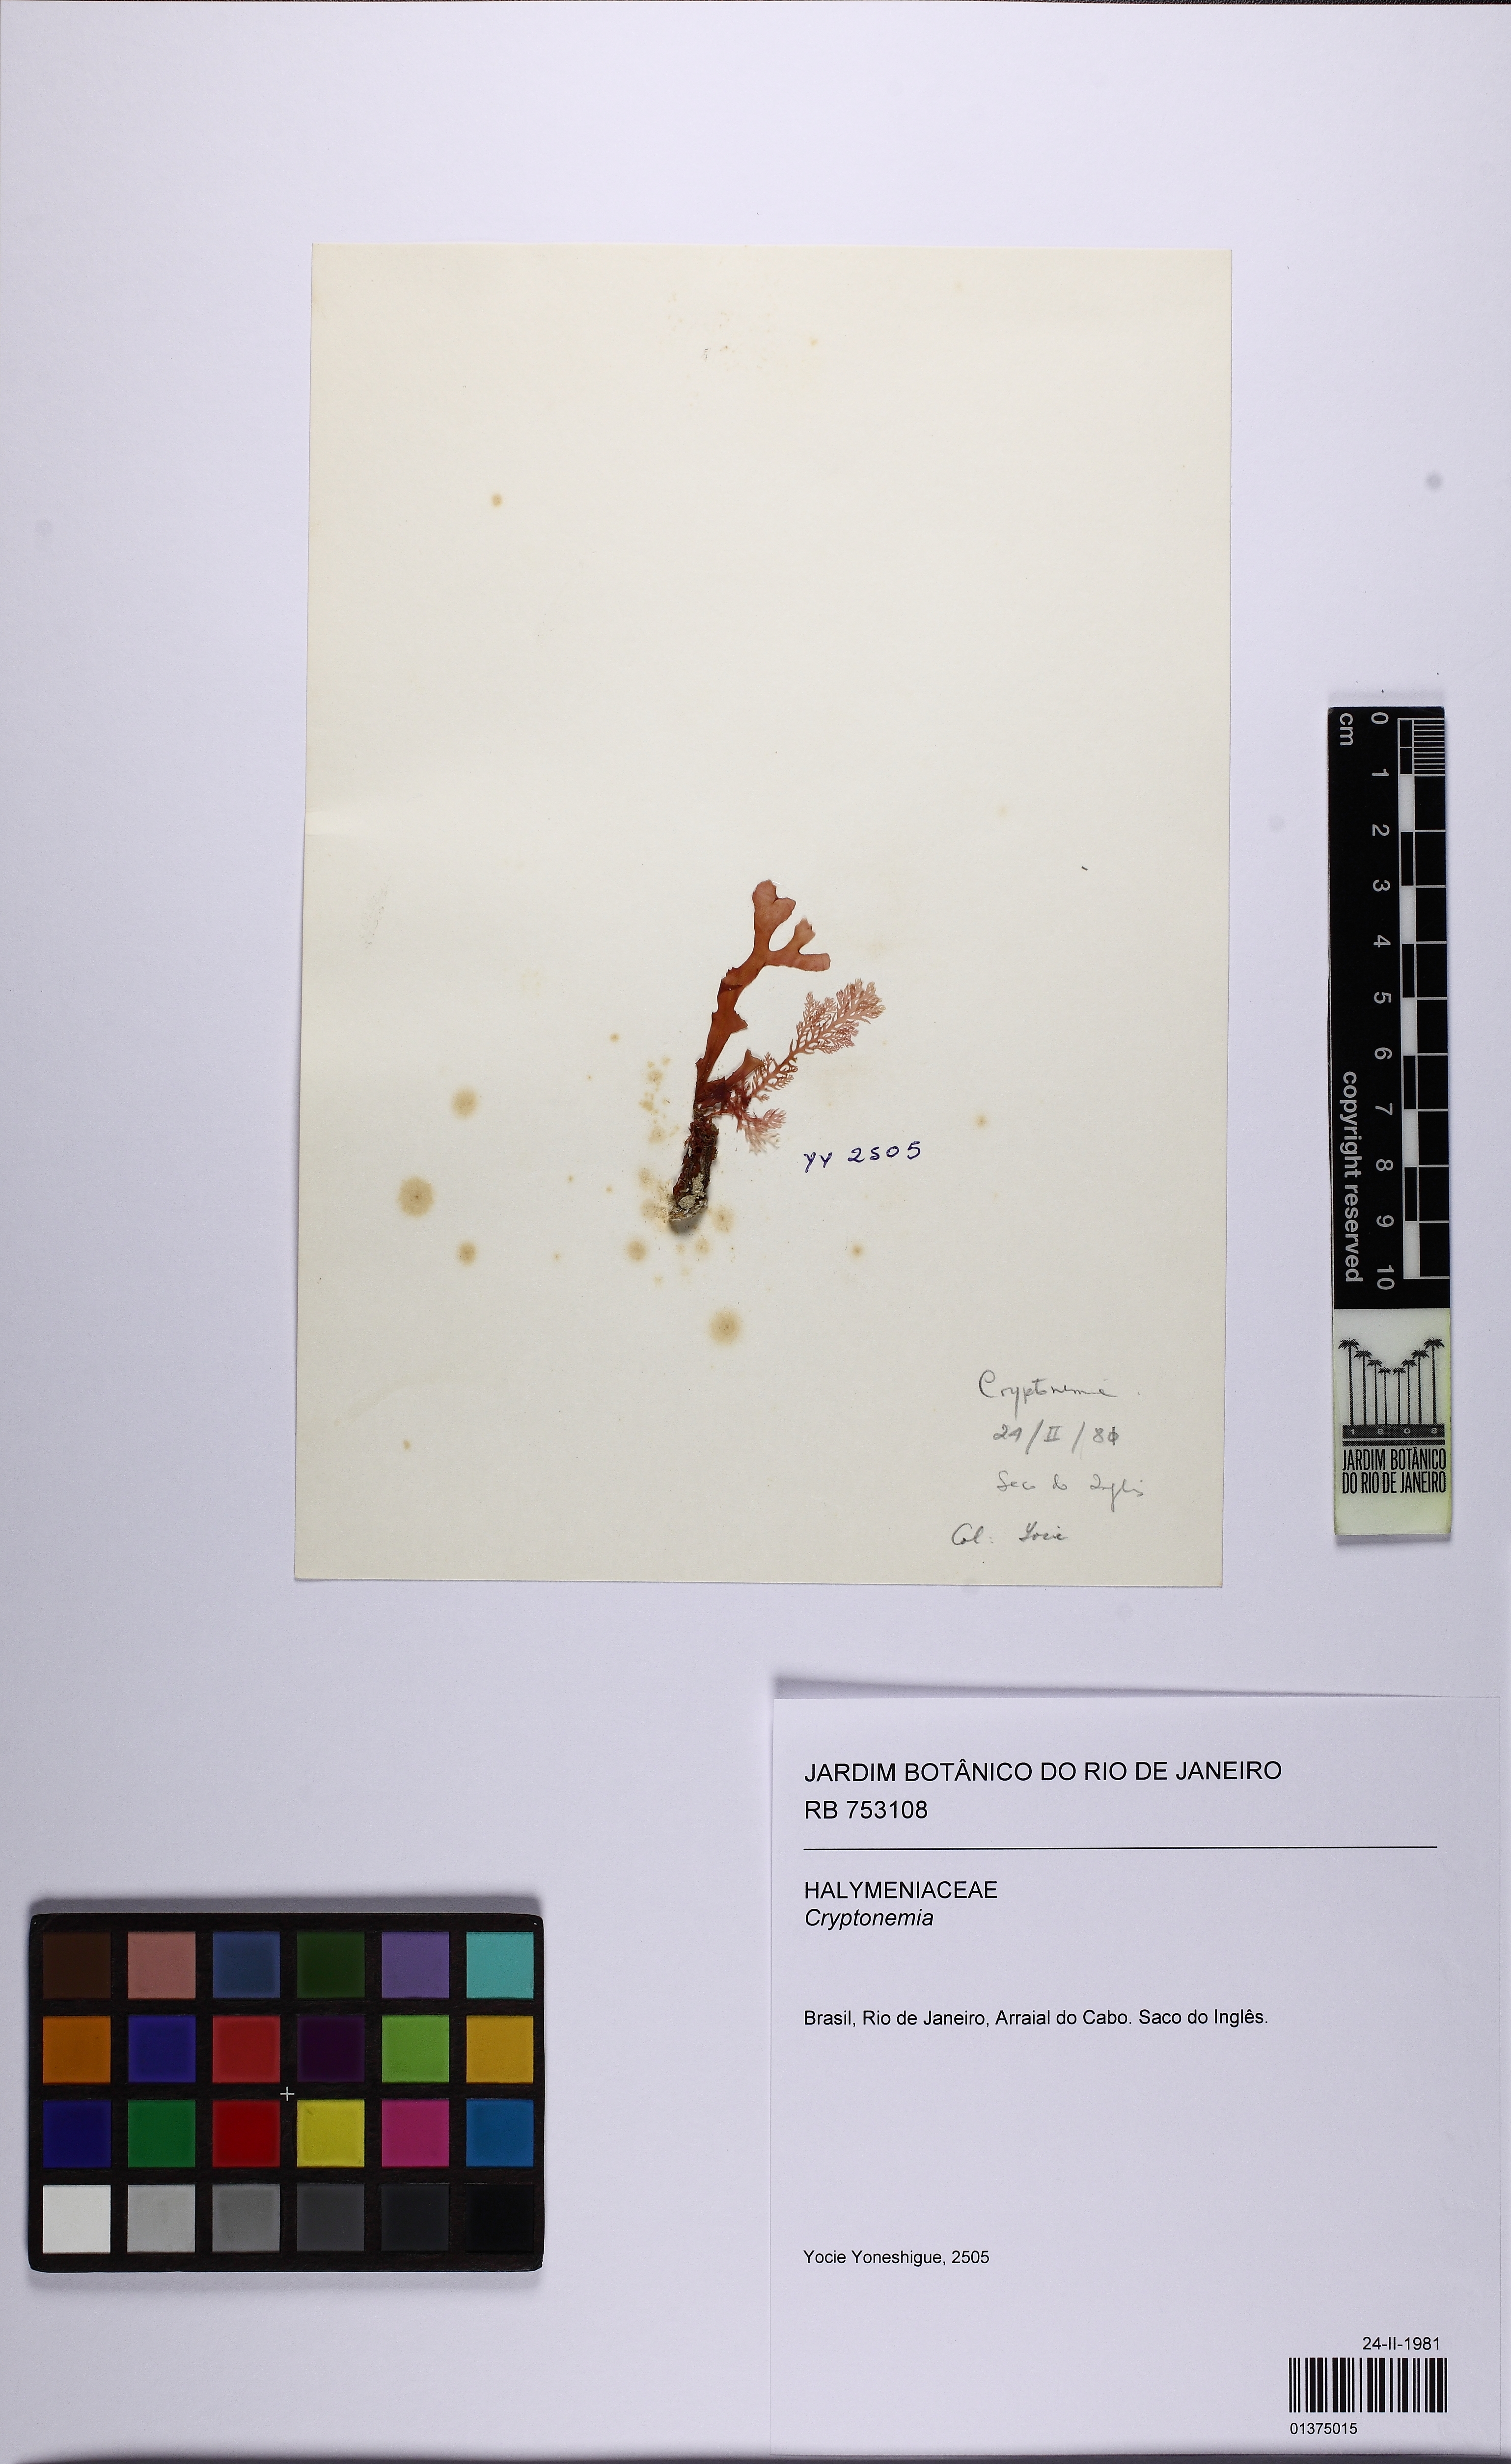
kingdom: Plantae
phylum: Rhodophyta
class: Florideophyceae
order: Halymeniales
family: Halymeniaceae
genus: Cryptonemia
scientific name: Cryptonemia
